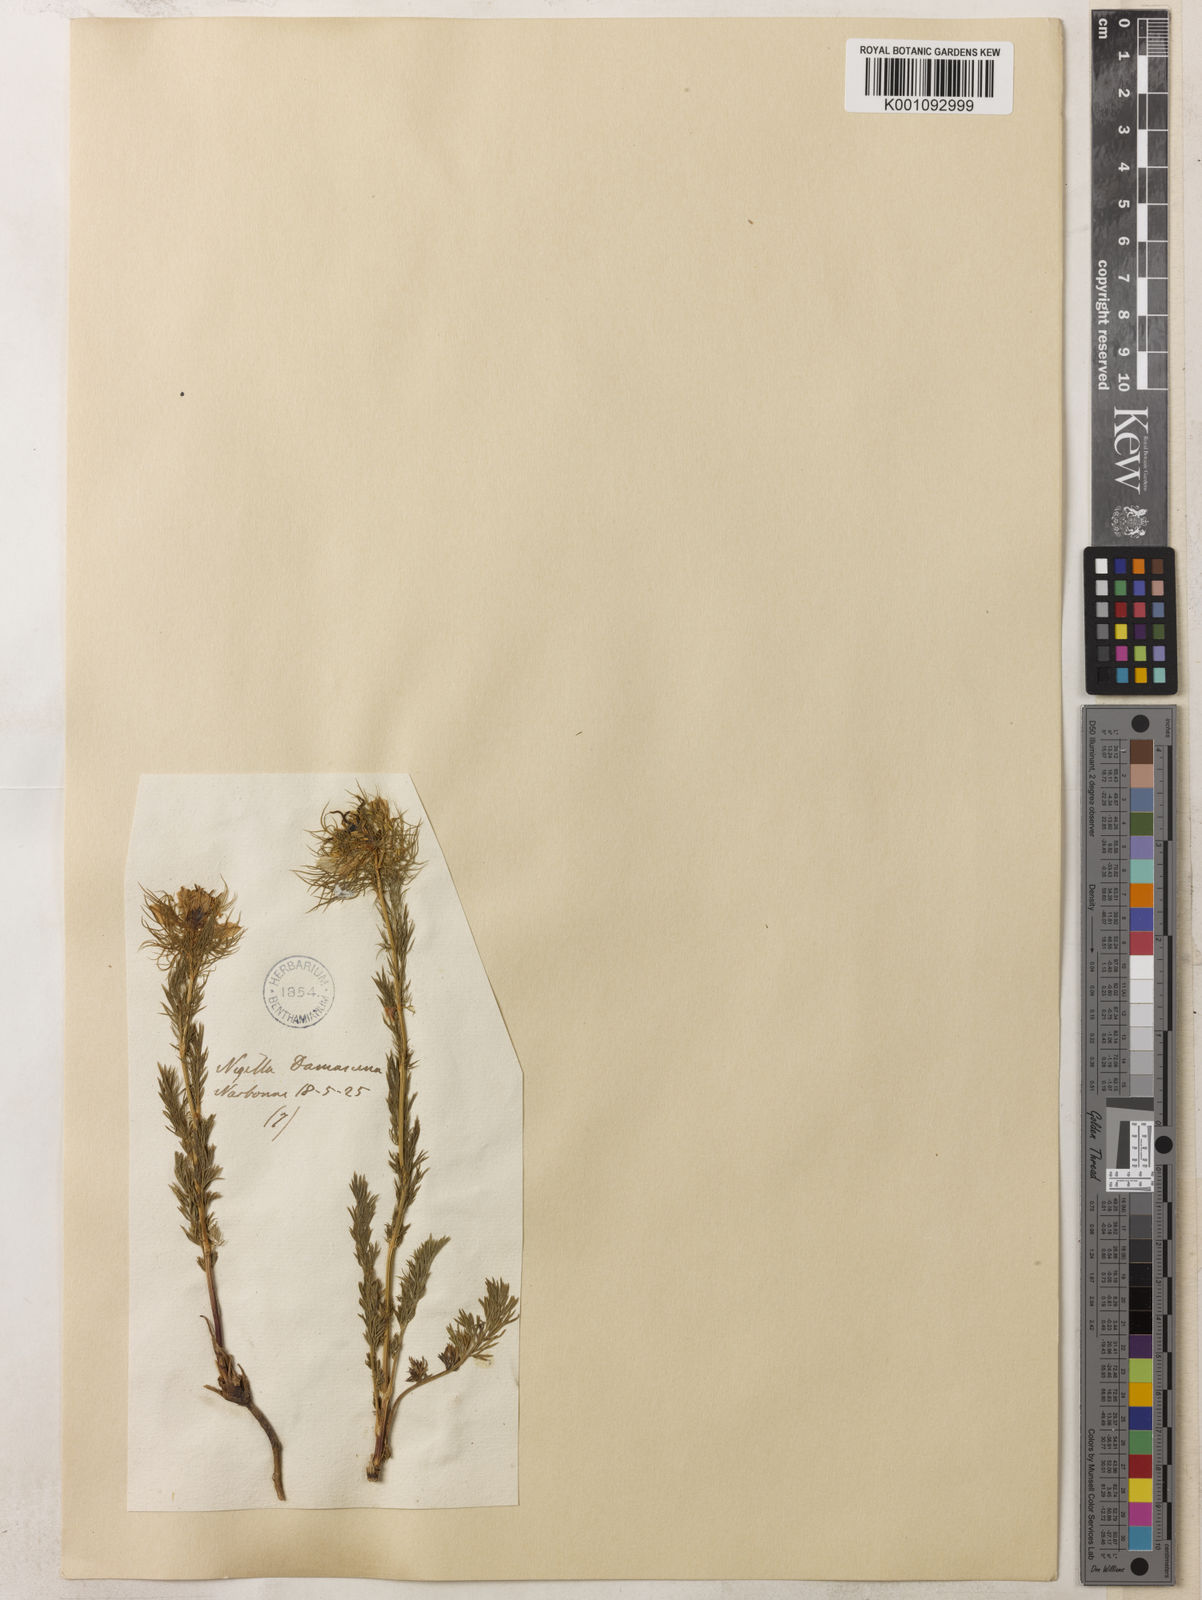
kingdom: Plantae
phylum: Tracheophyta
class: Magnoliopsida
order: Ranunculales
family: Ranunculaceae
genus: Nigella
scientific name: Nigella damascena
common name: Love-in-a-mist
